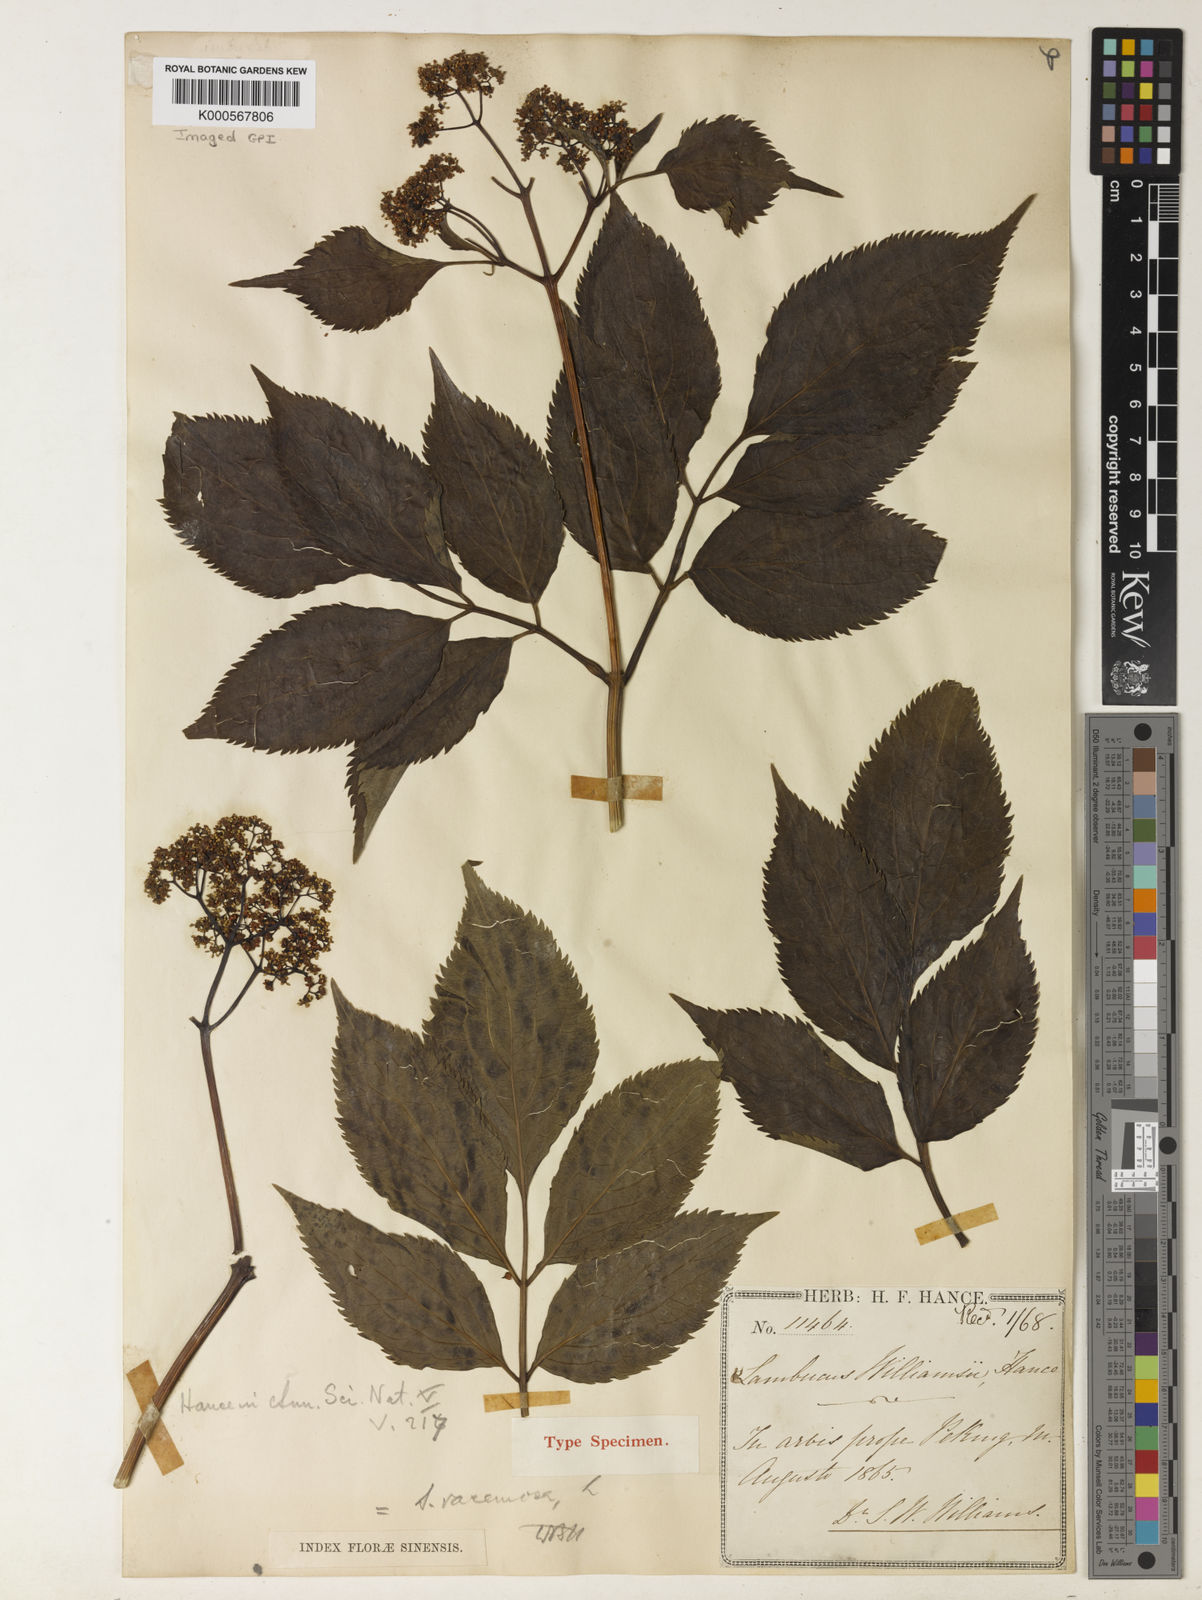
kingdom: Plantae
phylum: Tracheophyta
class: Magnoliopsida
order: Dipsacales
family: Viburnaceae
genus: Sambucus
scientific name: Sambucus williamsii
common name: William's elder
